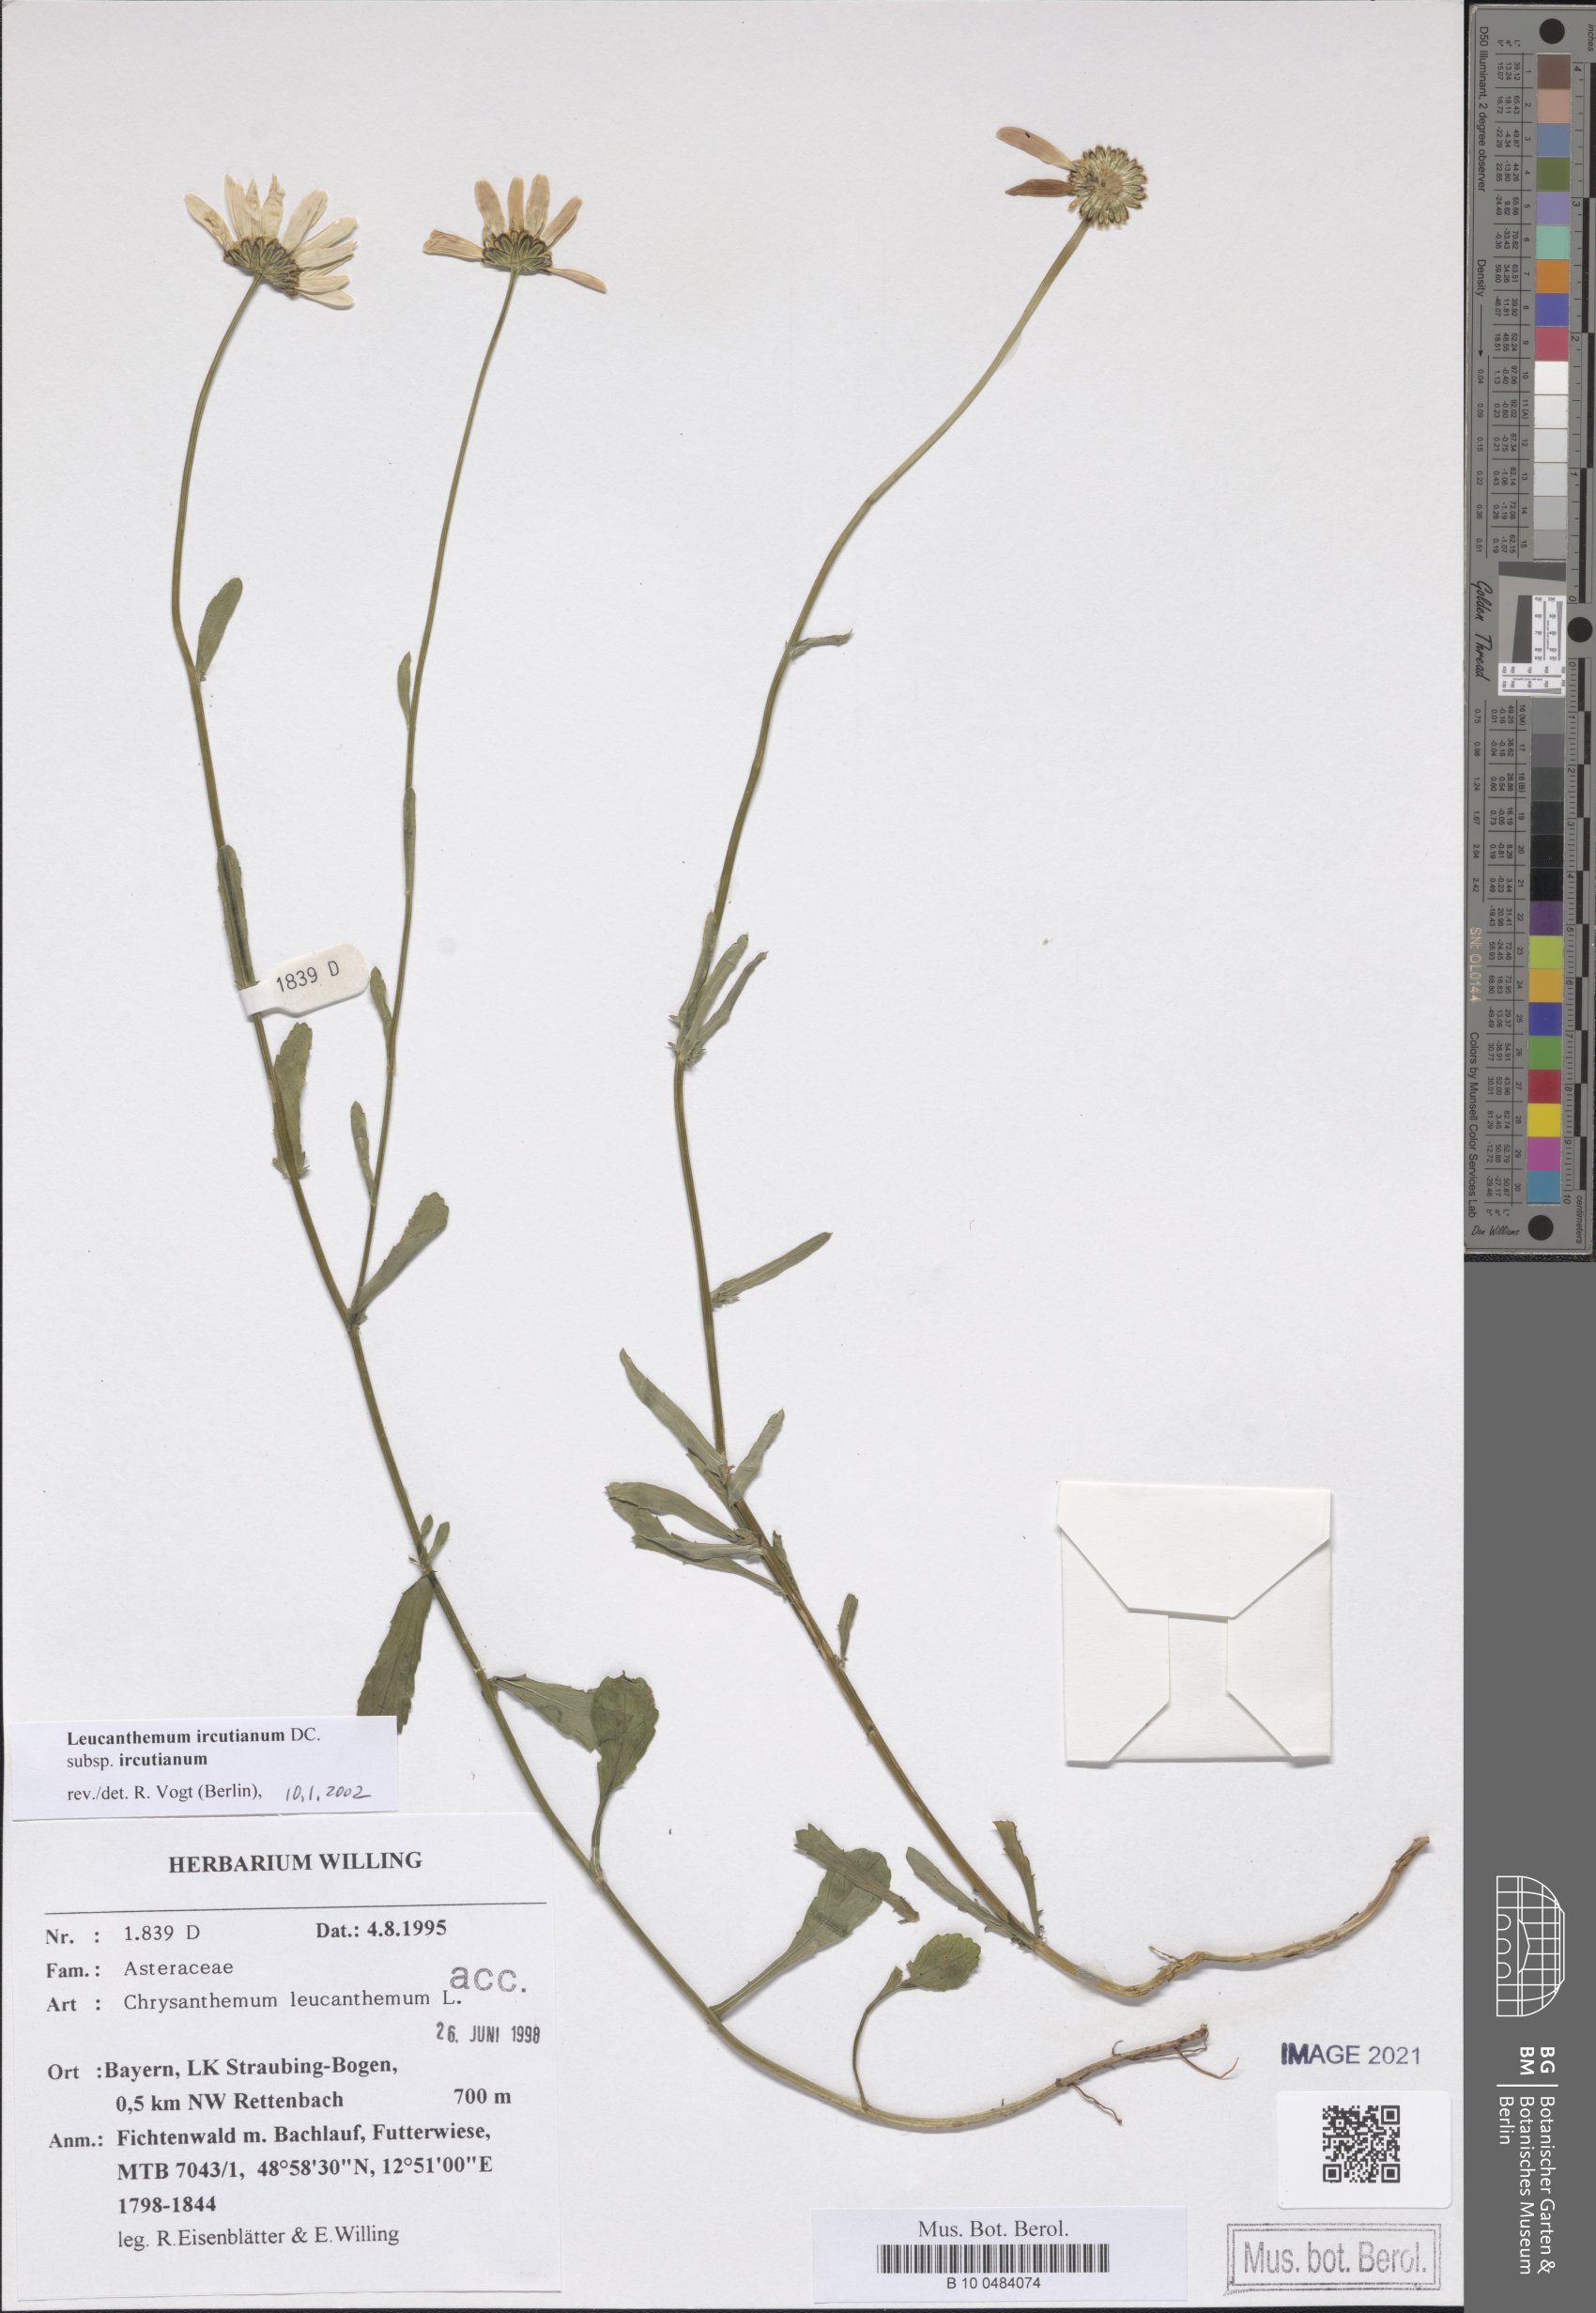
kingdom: Plantae
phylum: Tracheophyta
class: Magnoliopsida
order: Asterales
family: Asteraceae
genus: Leucanthemum
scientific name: Leucanthemum ircutianum
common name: Daisy
